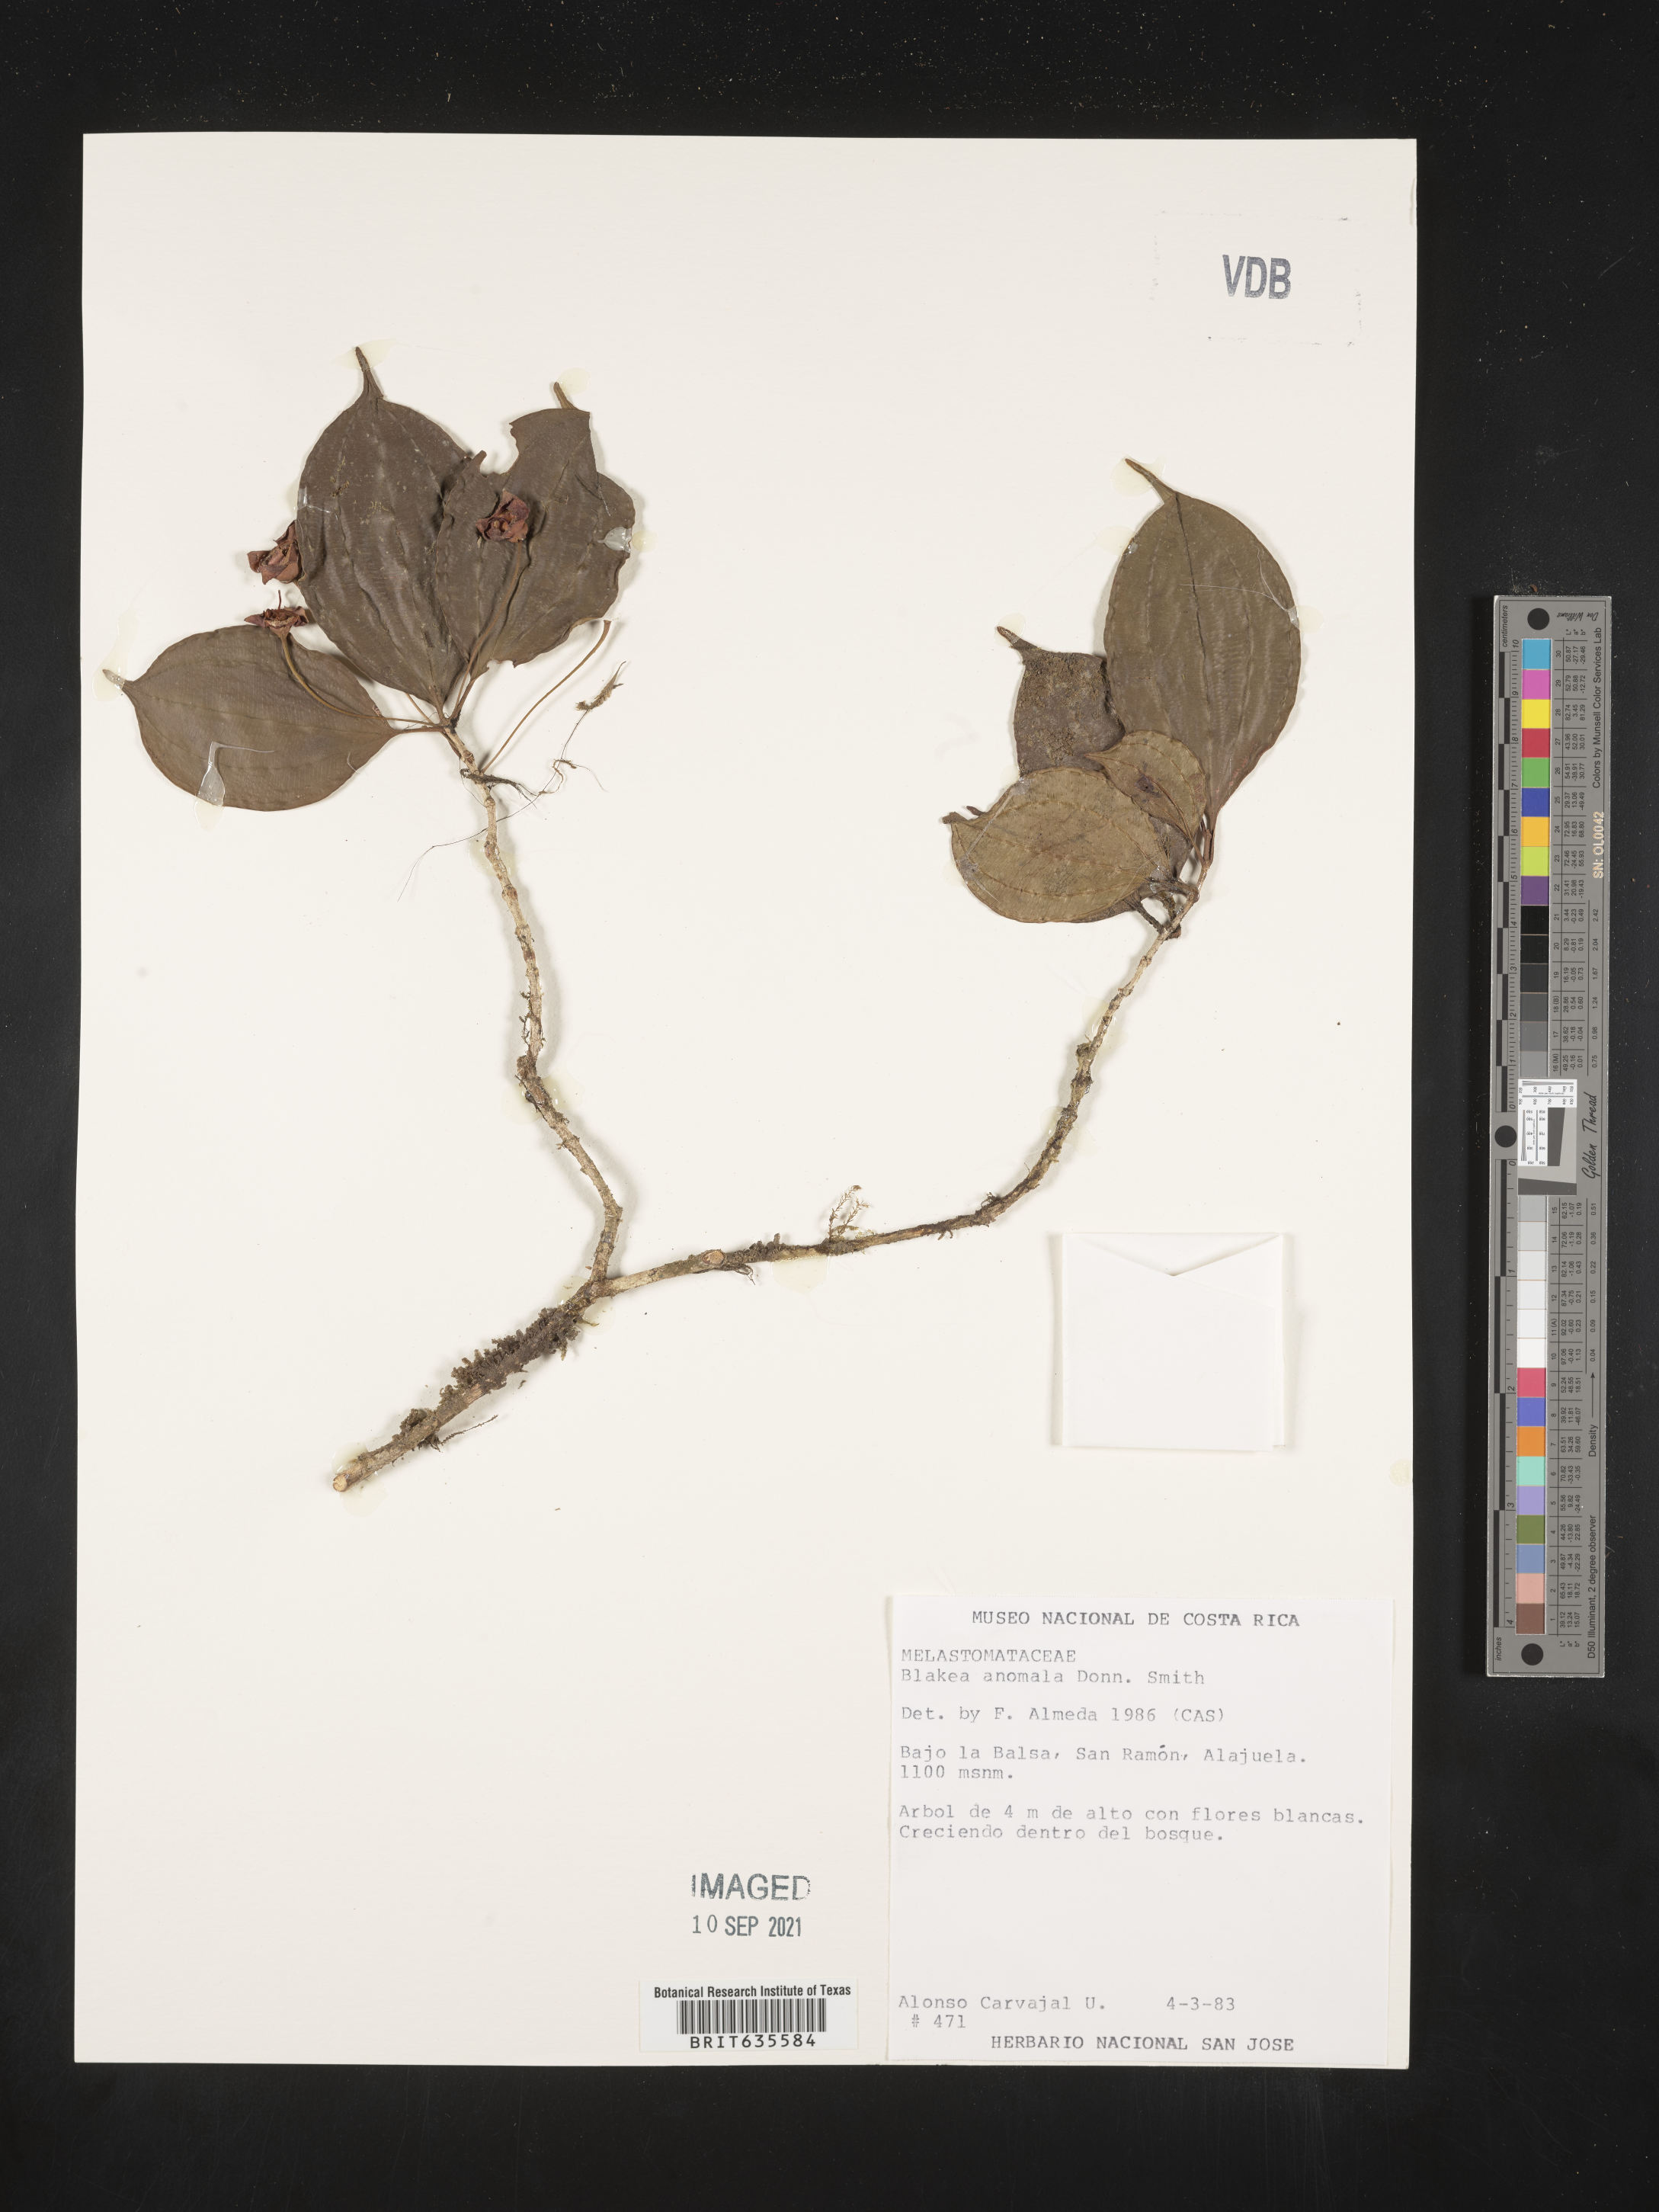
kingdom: Plantae
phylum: Tracheophyta
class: Magnoliopsida
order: Myrtales
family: Melastomataceae
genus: Blakea
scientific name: Blakea
